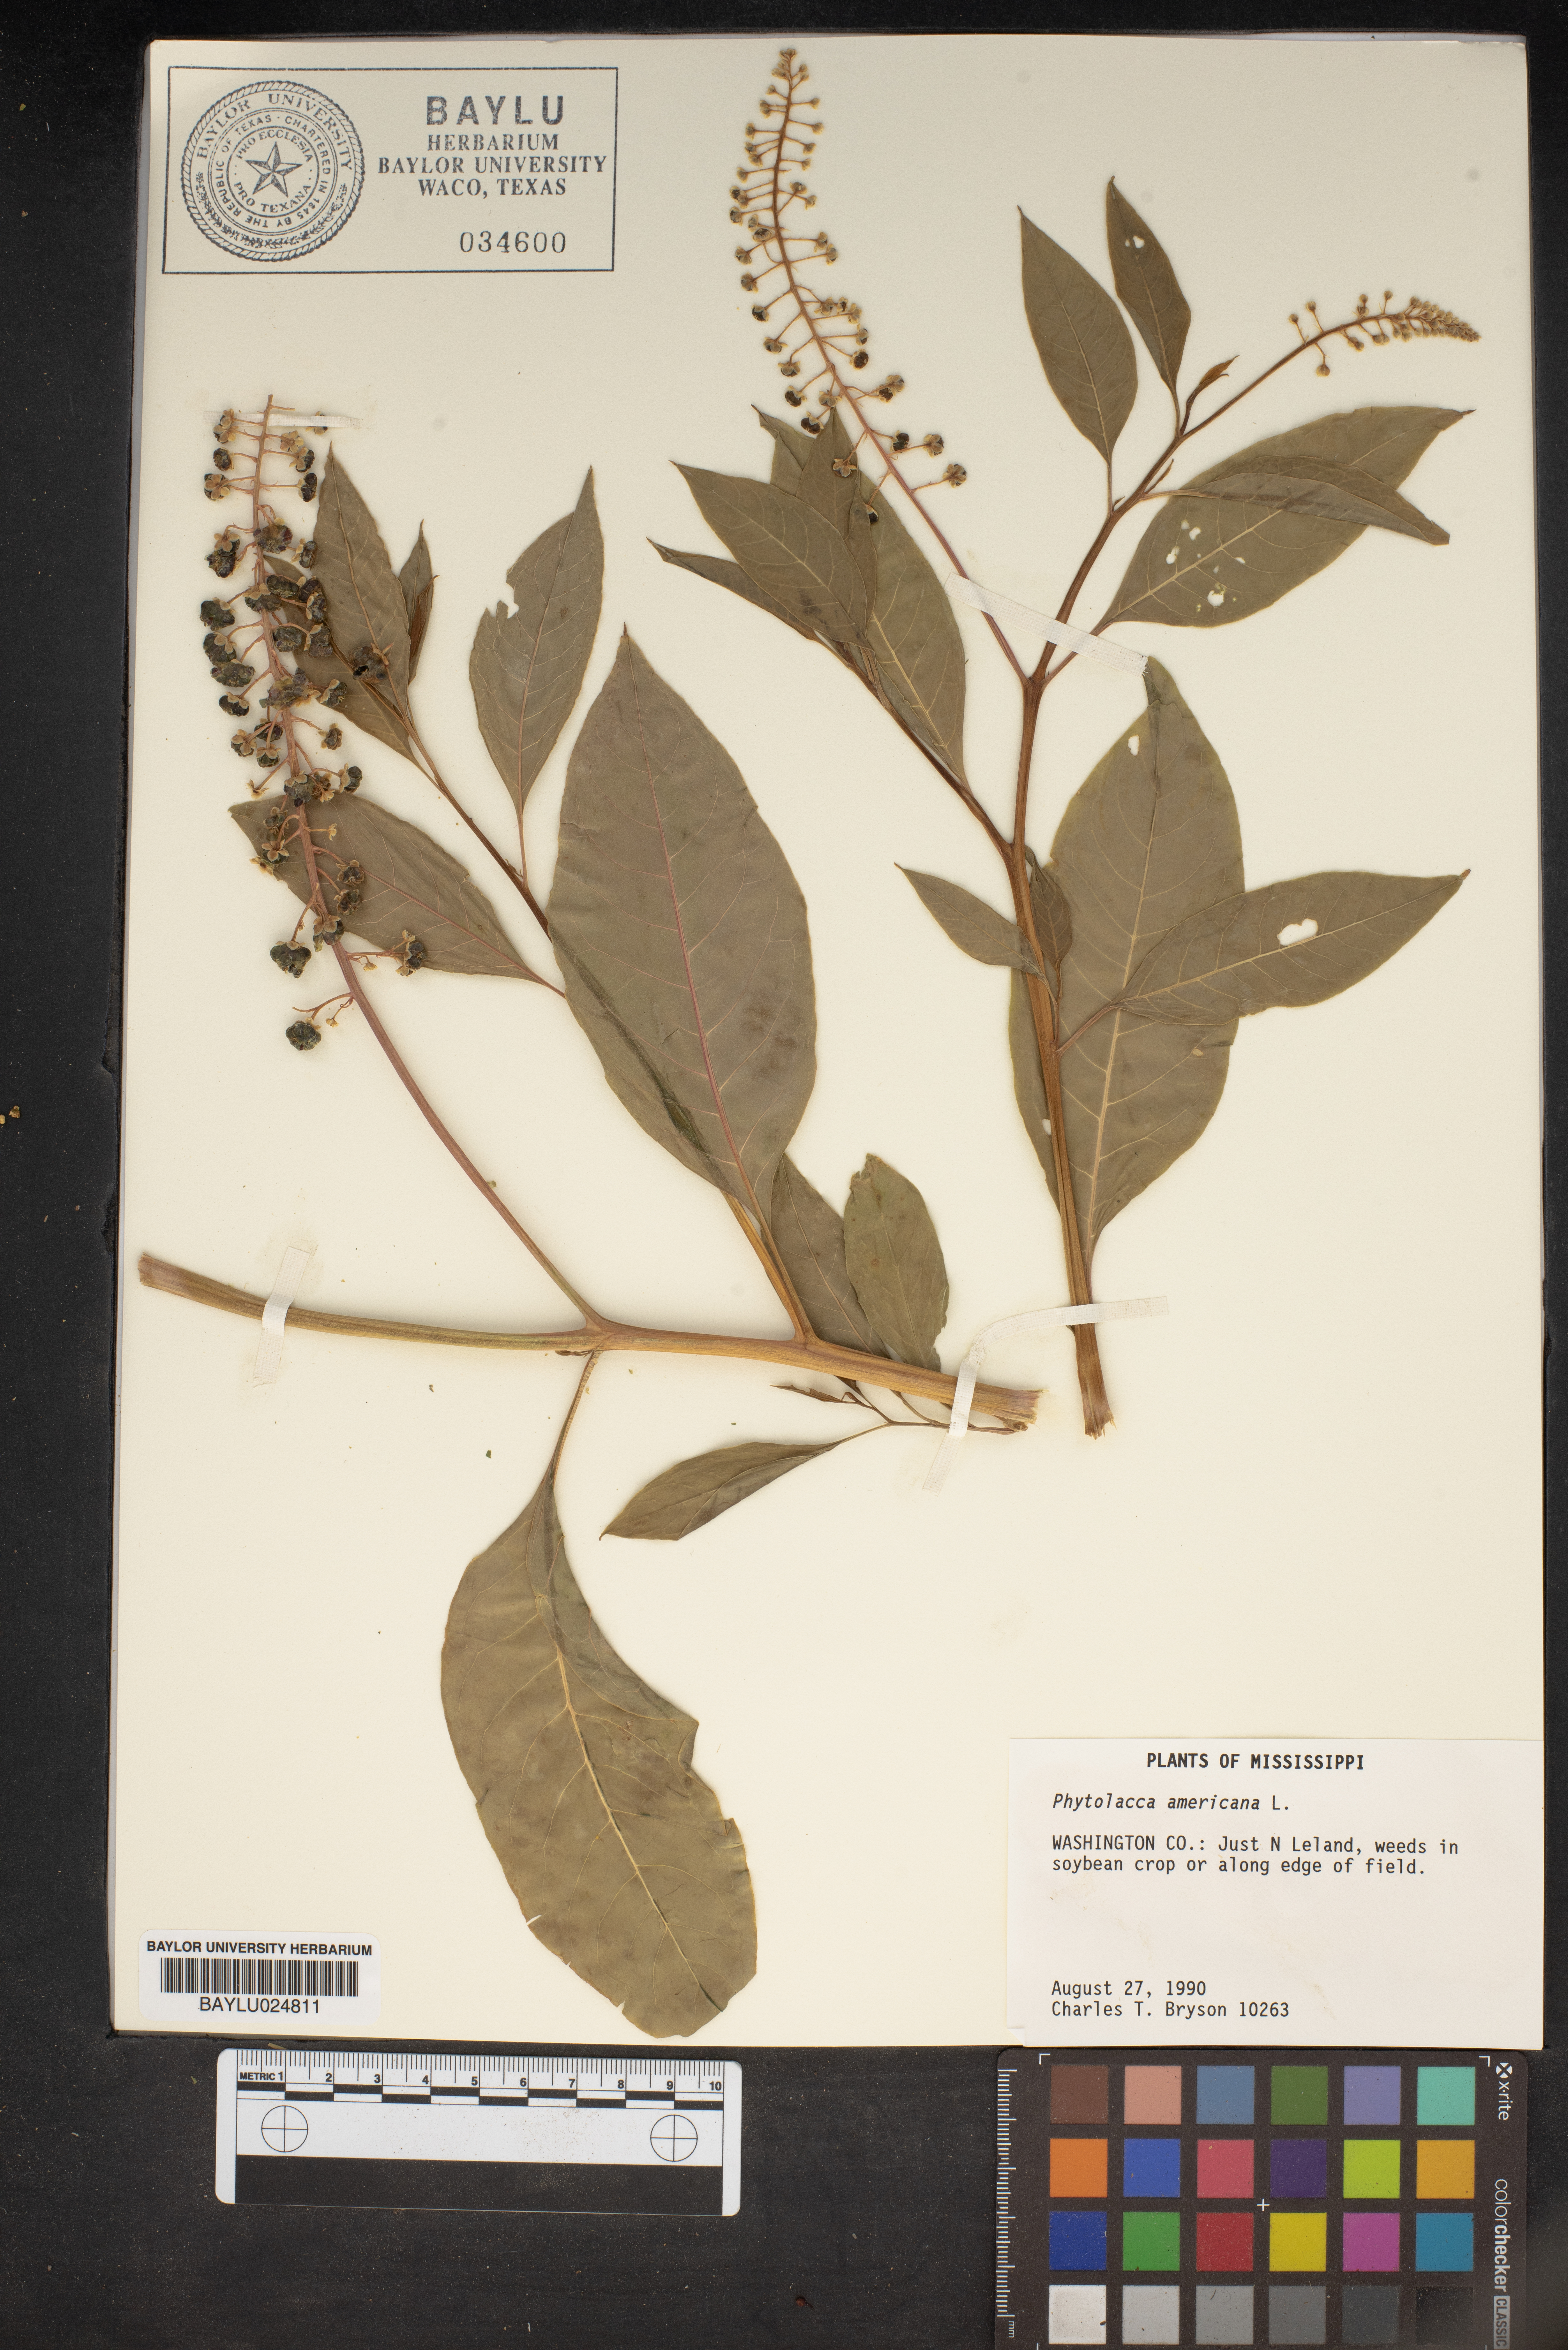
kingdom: Plantae
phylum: Tracheophyta
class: Magnoliopsida
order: Caryophyllales
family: Phytolaccaceae
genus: Phytolacca
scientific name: Phytolacca americana
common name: American pokeweed
